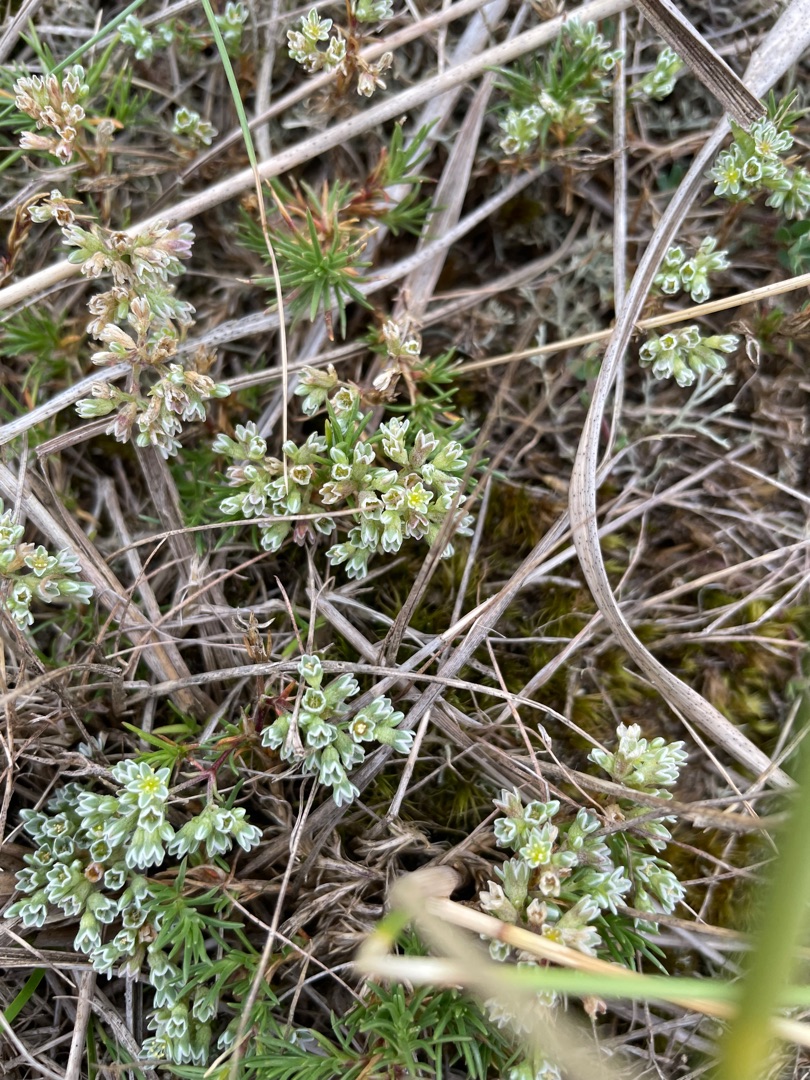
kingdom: Plantae
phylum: Tracheophyta
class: Magnoliopsida
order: Caryophyllales
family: Caryophyllaceae
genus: Scleranthus
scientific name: Scleranthus perennis
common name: Flerårig knavel
